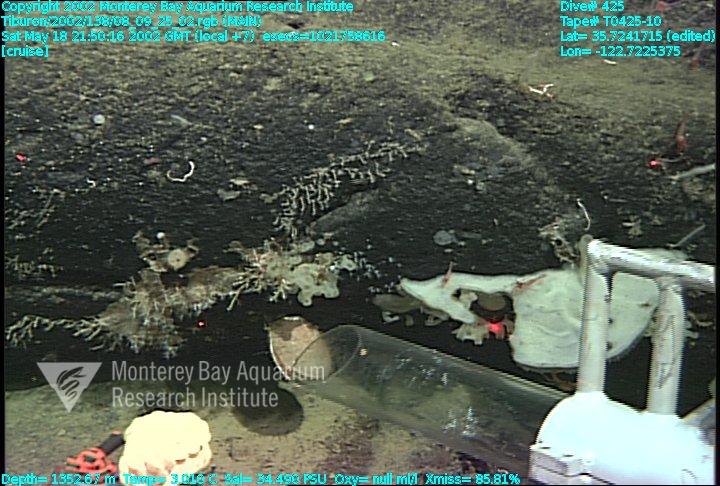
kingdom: Animalia
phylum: Porifera
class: Hexactinellida
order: Sceptrulophora
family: Farreidae
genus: Farrea
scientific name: Farrea occa
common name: Reversed glass sponge
